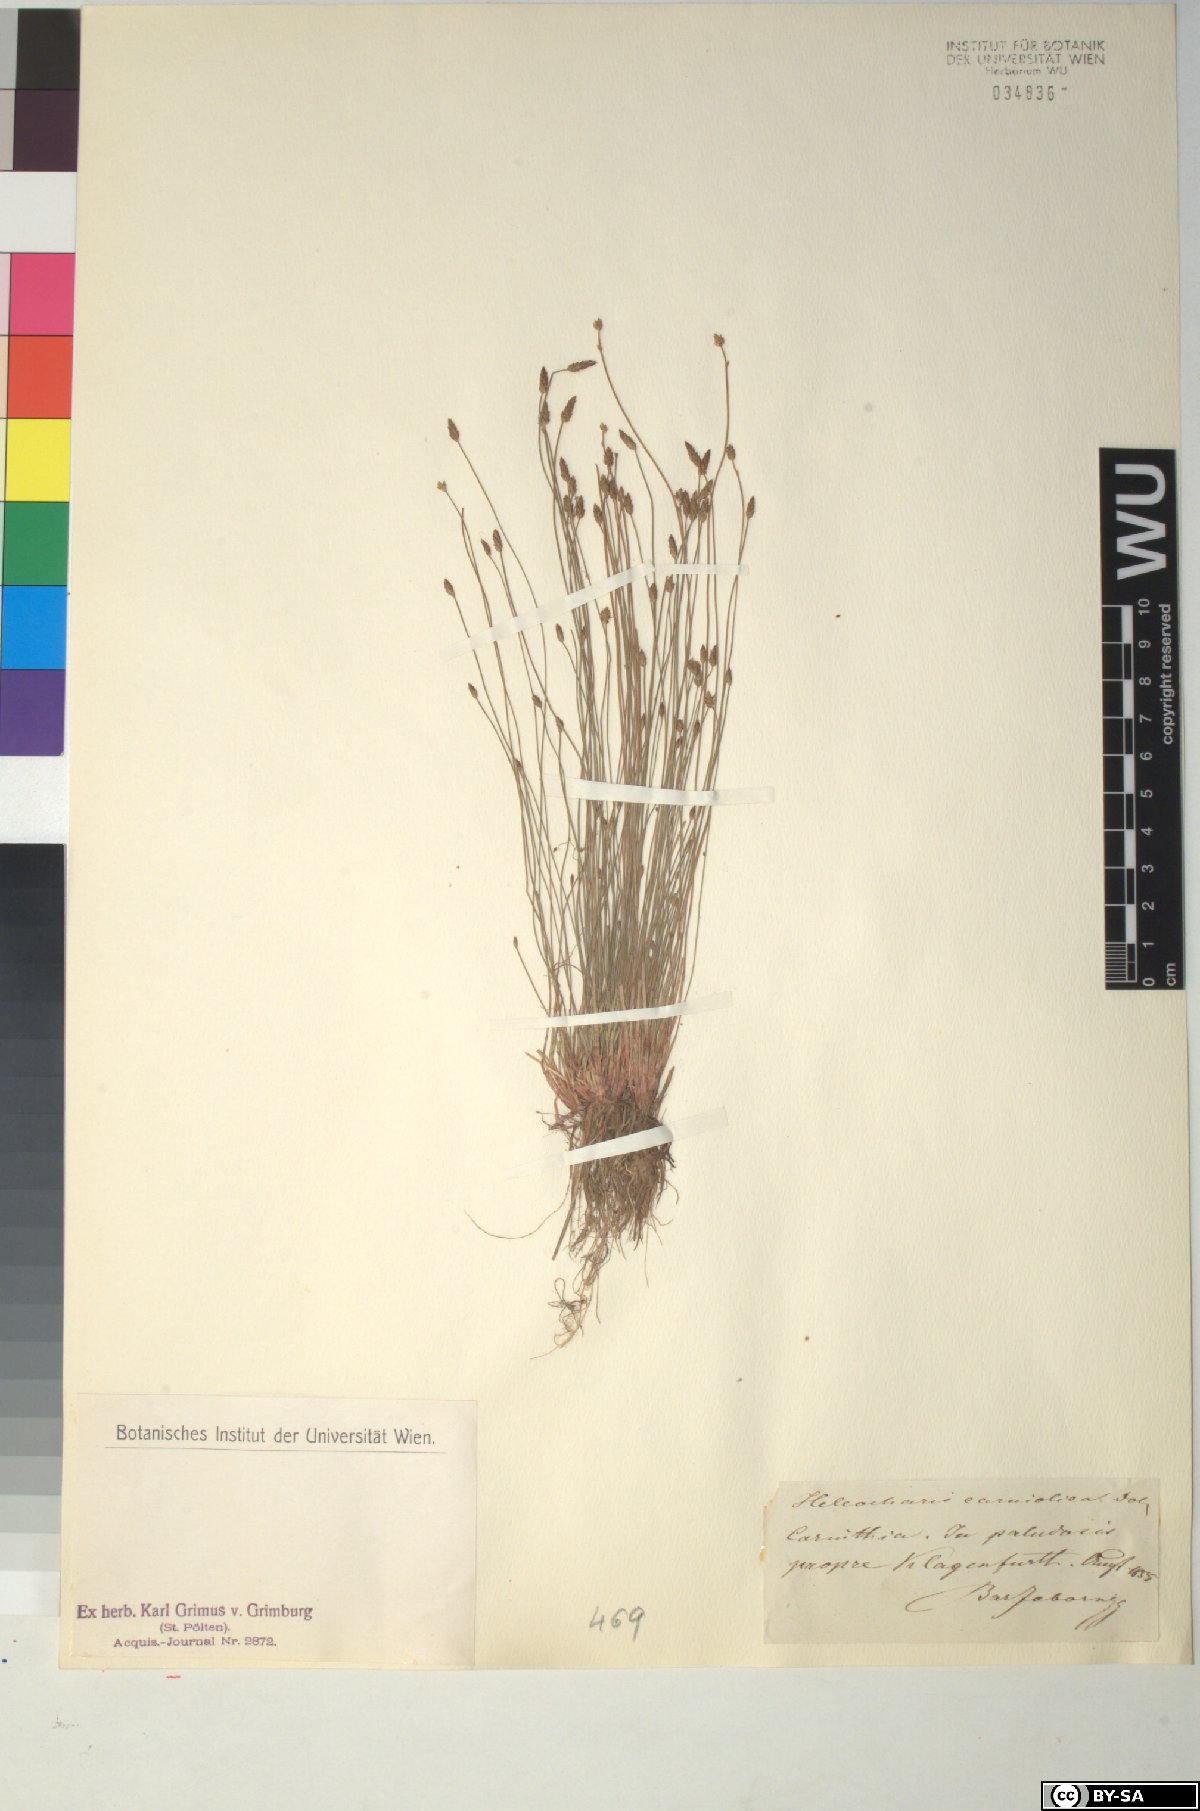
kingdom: Plantae
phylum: Tracheophyta
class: Liliopsida
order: Poales
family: Cyperaceae
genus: Eleocharis
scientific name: Eleocharis carniolica
